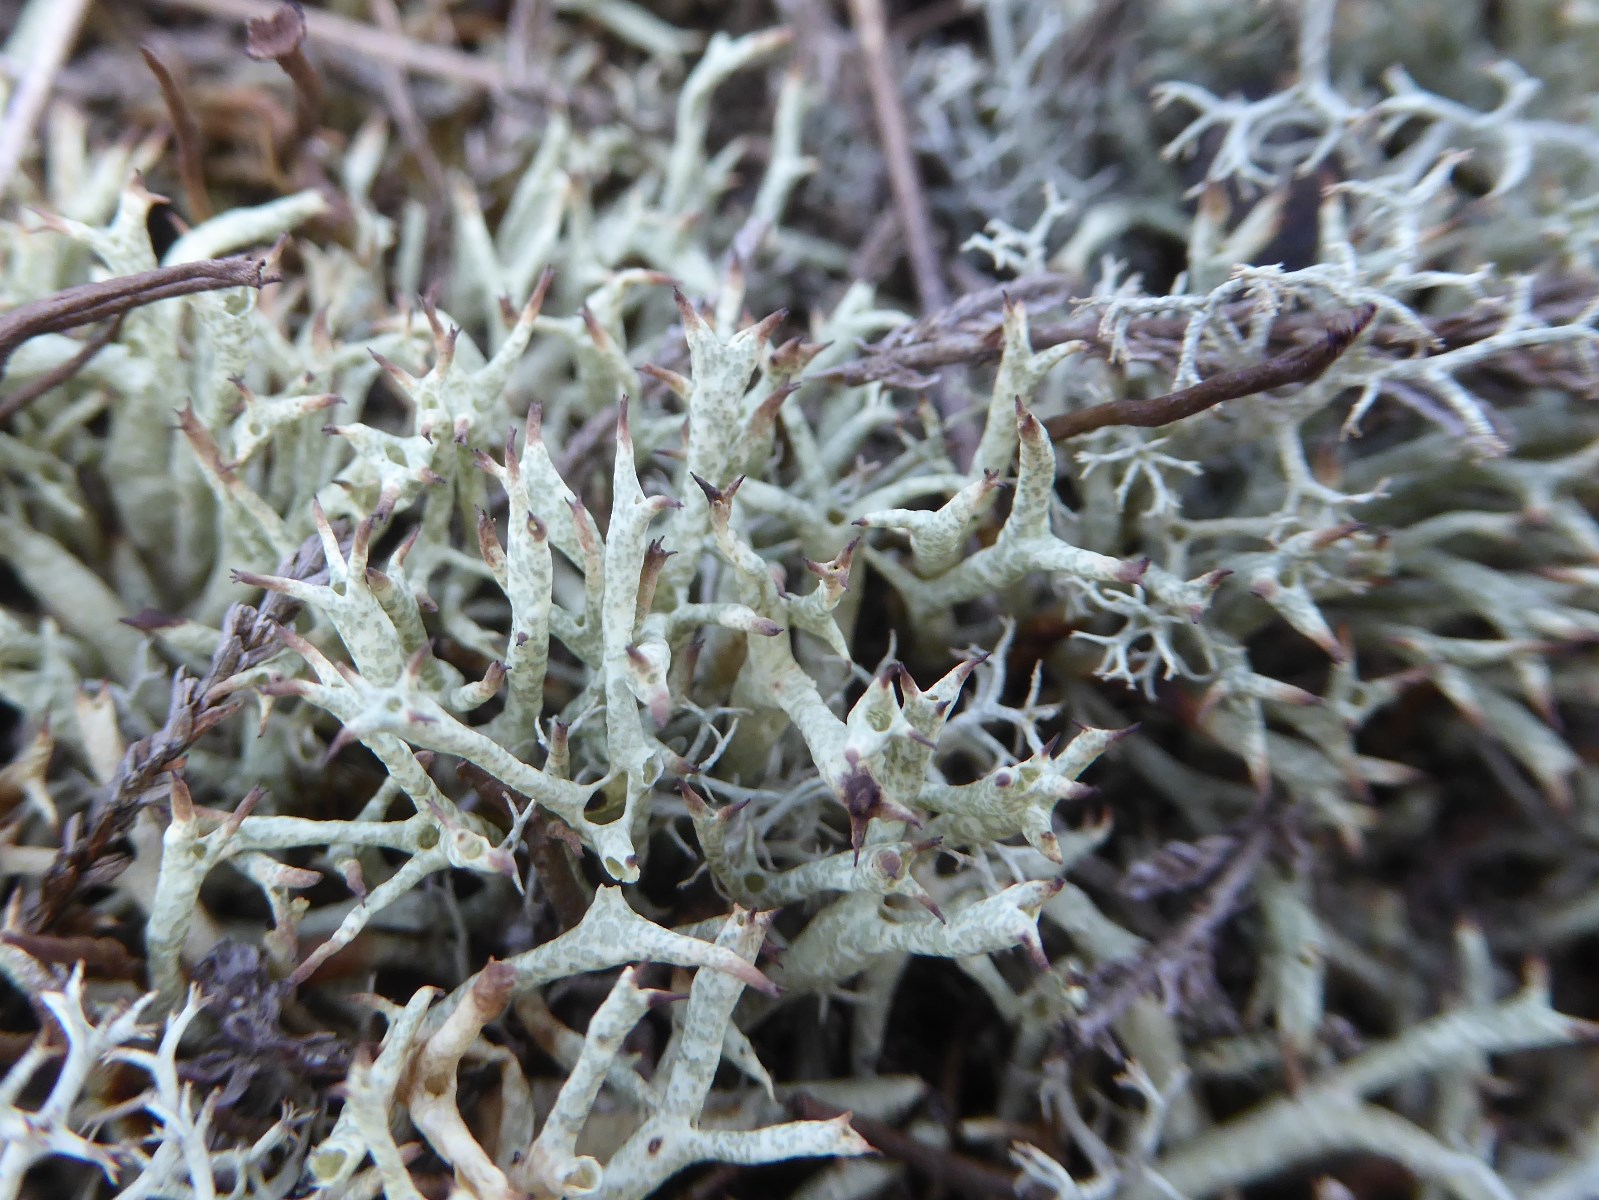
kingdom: Fungi
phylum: Ascomycota
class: Lecanoromycetes
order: Lecanorales
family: Cladoniaceae
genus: Cladonia
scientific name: Cladonia uncialis
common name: pigget bægerlav
